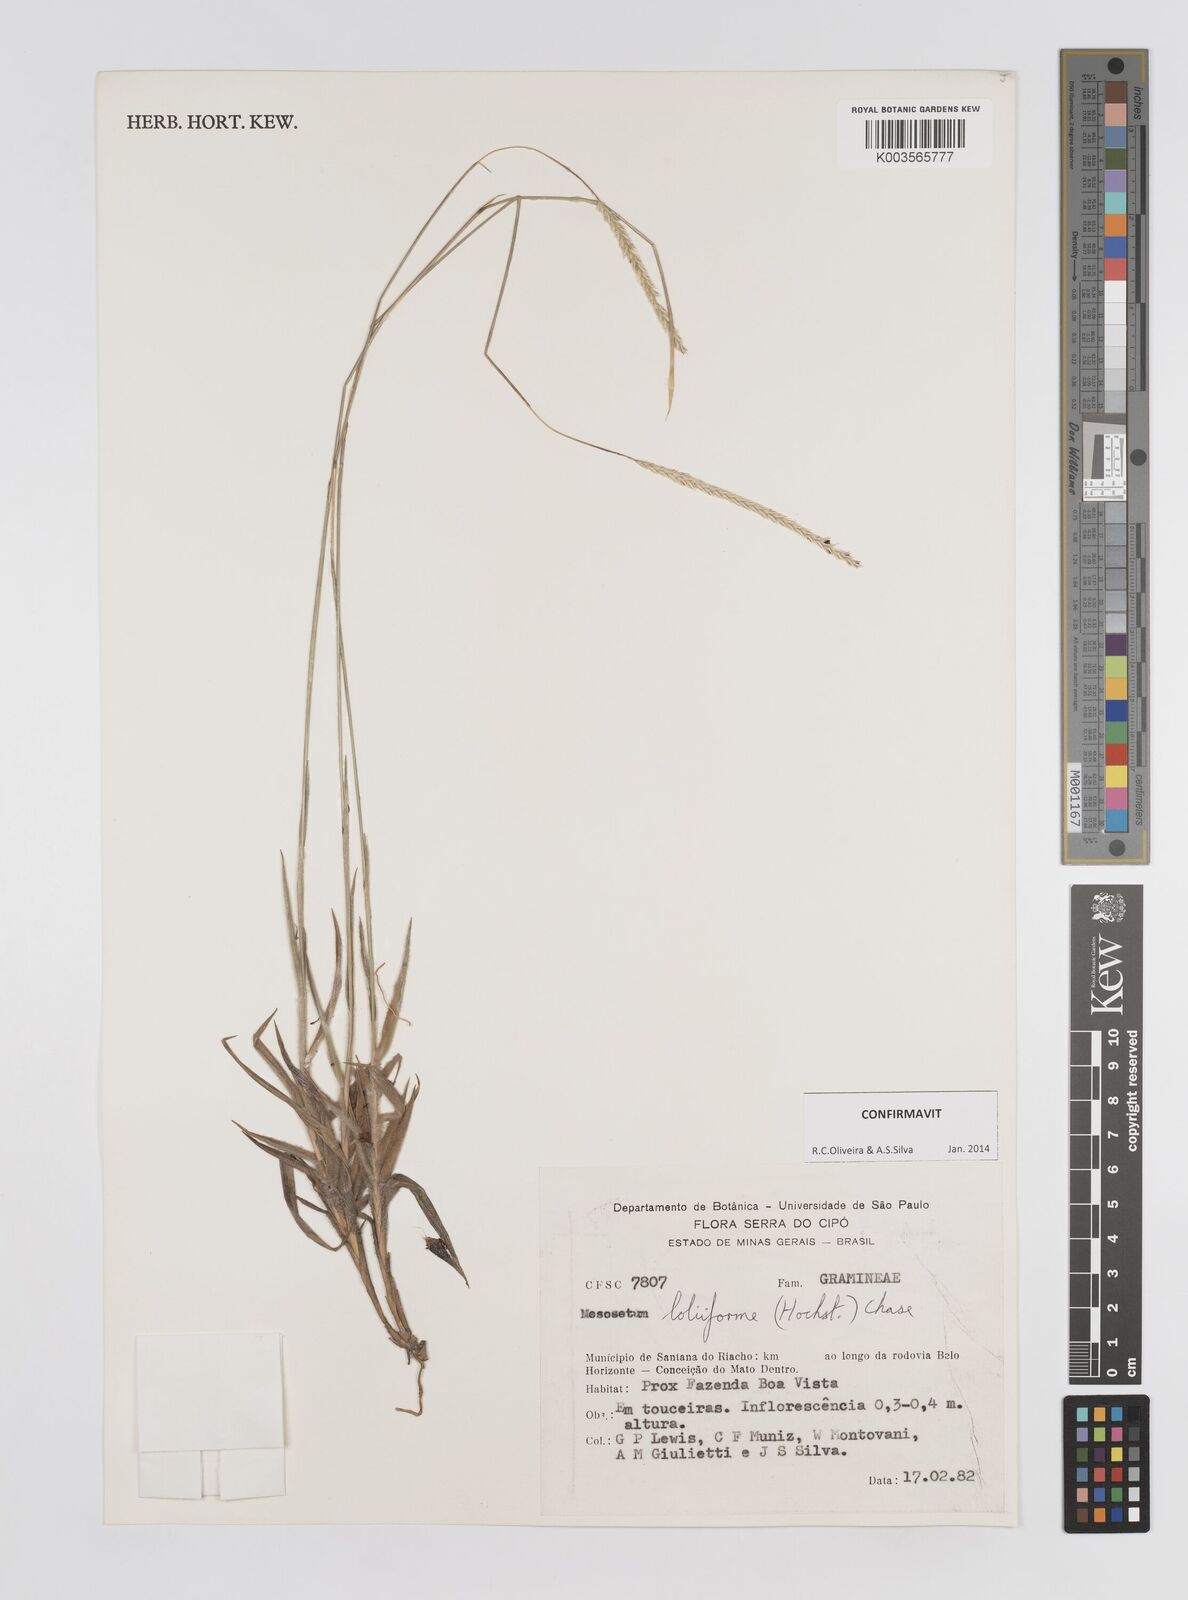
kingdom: Plantae
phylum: Tracheophyta
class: Liliopsida
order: Poales
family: Poaceae
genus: Mesosetum
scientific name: Mesosetum loliiforme
